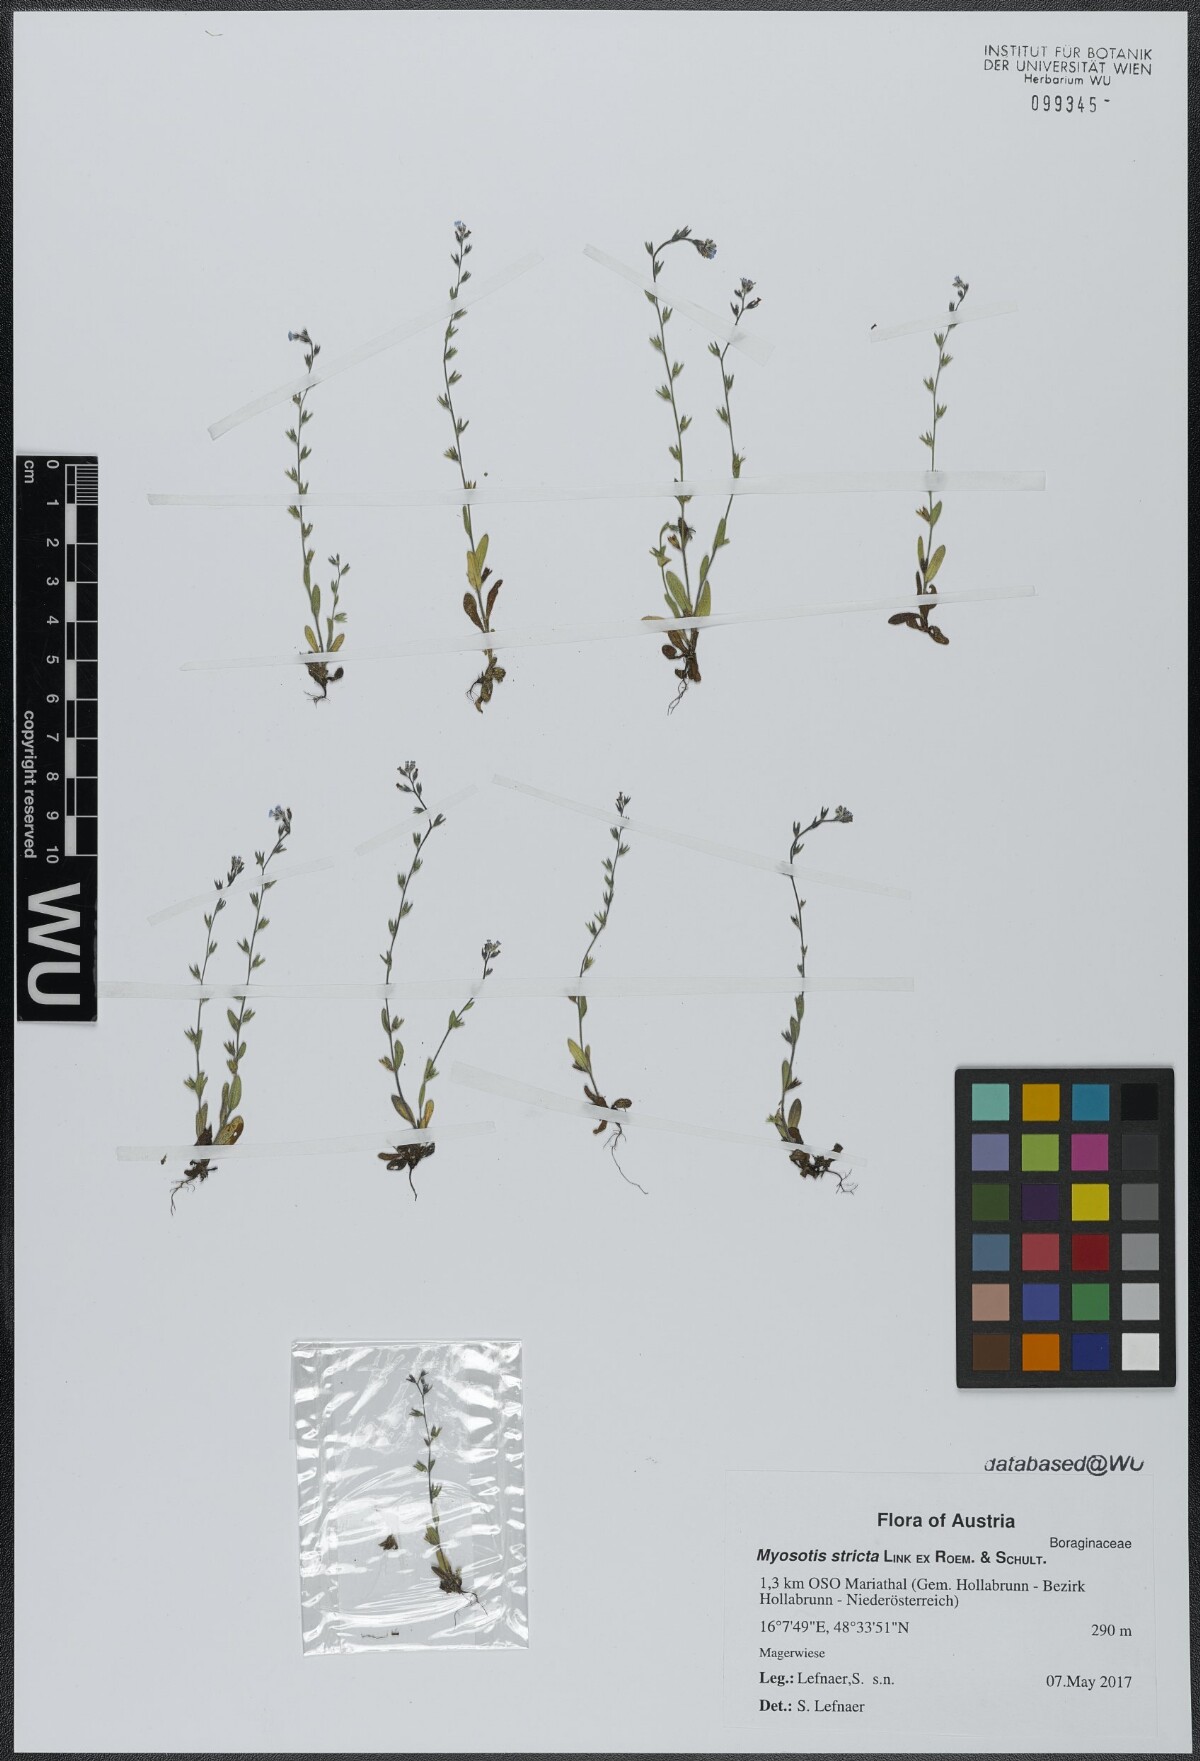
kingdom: Plantae
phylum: Tracheophyta
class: Magnoliopsida
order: Boraginales
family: Boraginaceae
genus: Myosotis
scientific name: Myosotis stricta
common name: Strict forget-me-not
